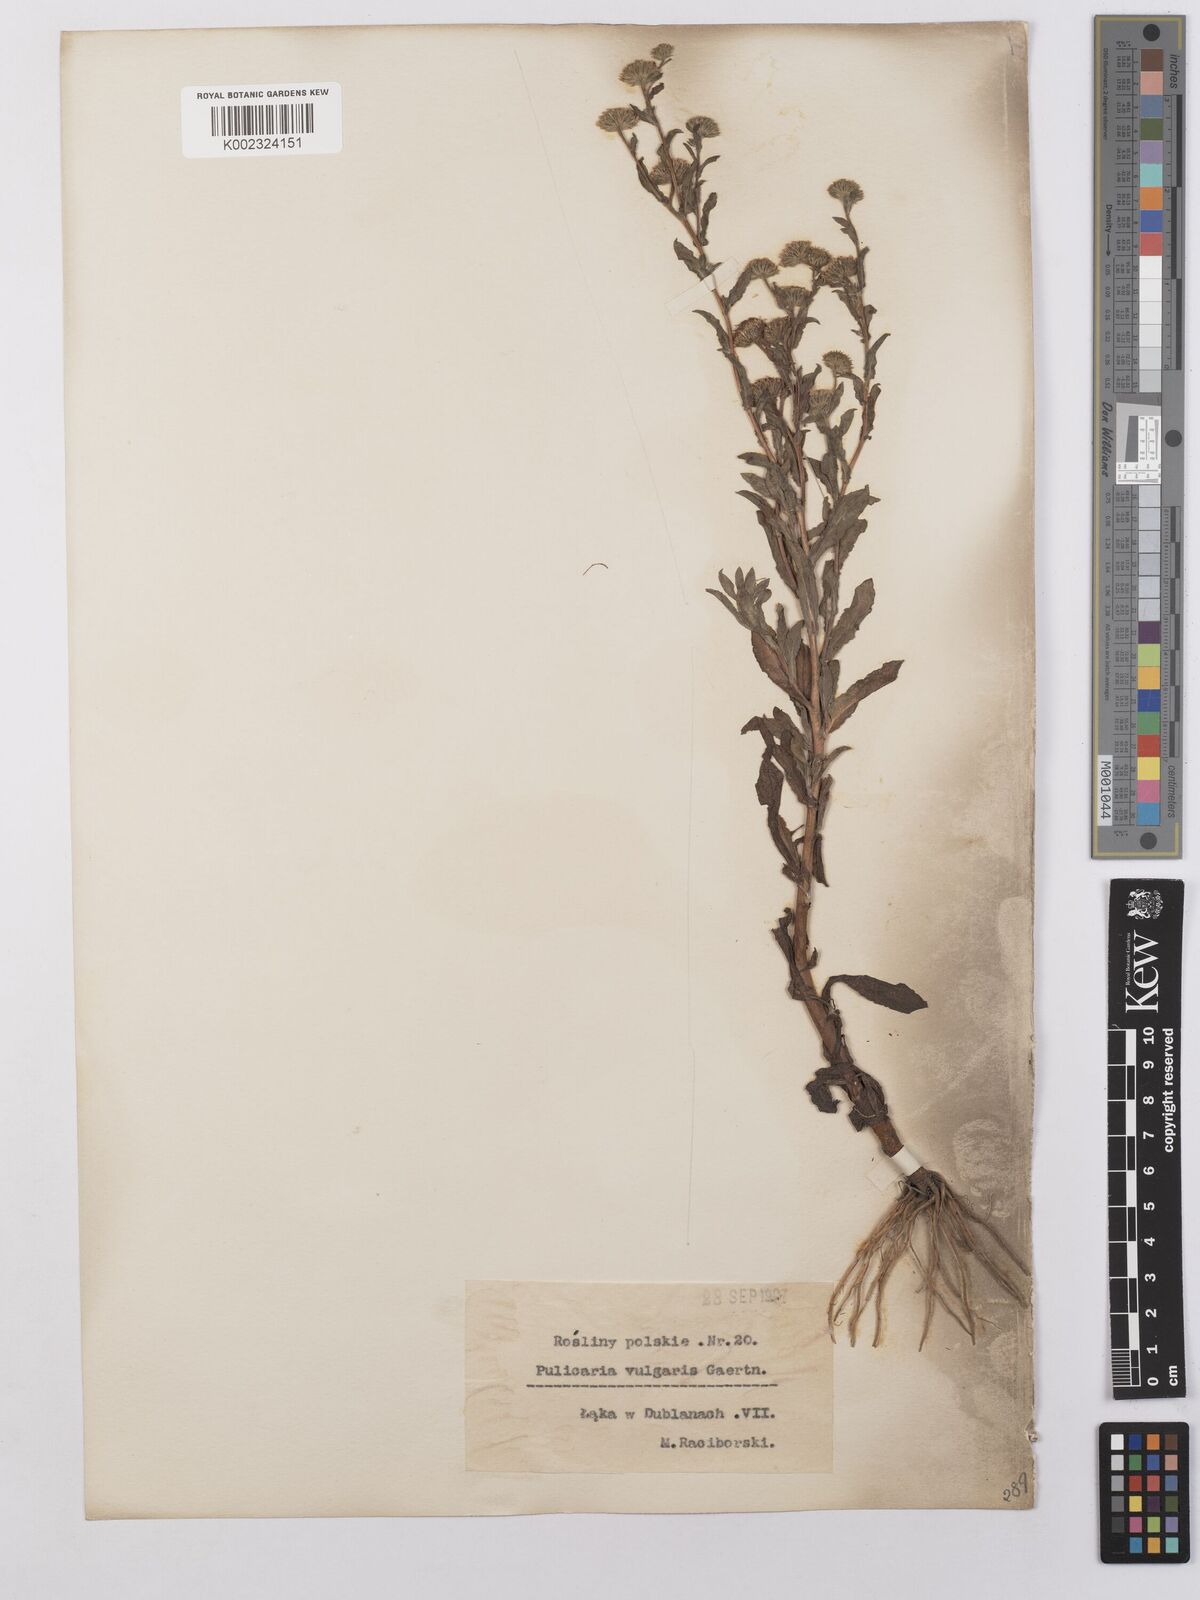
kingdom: Plantae
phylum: Tracheophyta
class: Magnoliopsida
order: Asterales
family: Asteraceae
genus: Pulicaria
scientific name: Pulicaria vulgaris
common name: Small fleabane
